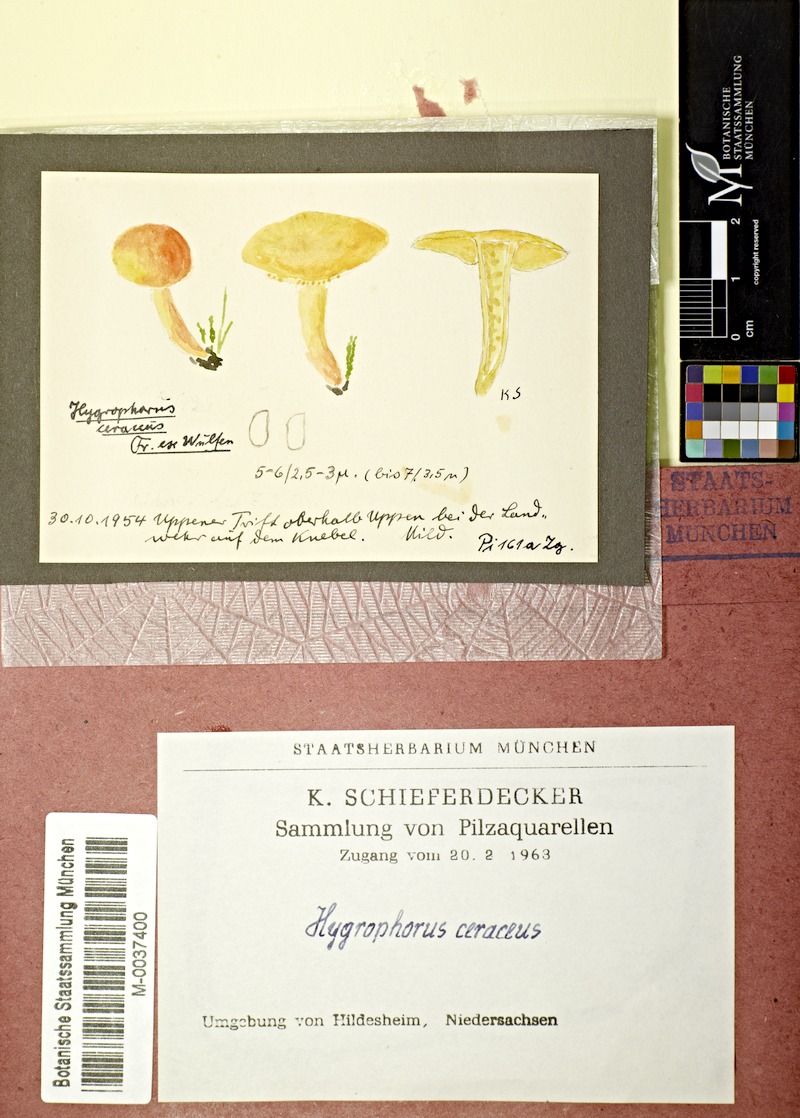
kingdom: Fungi
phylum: Basidiomycota
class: Agaricomycetes
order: Agaricales
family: Hygrophoraceae
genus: Hygrocybe
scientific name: Hygrocybe ceracea
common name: Butter waxcap
